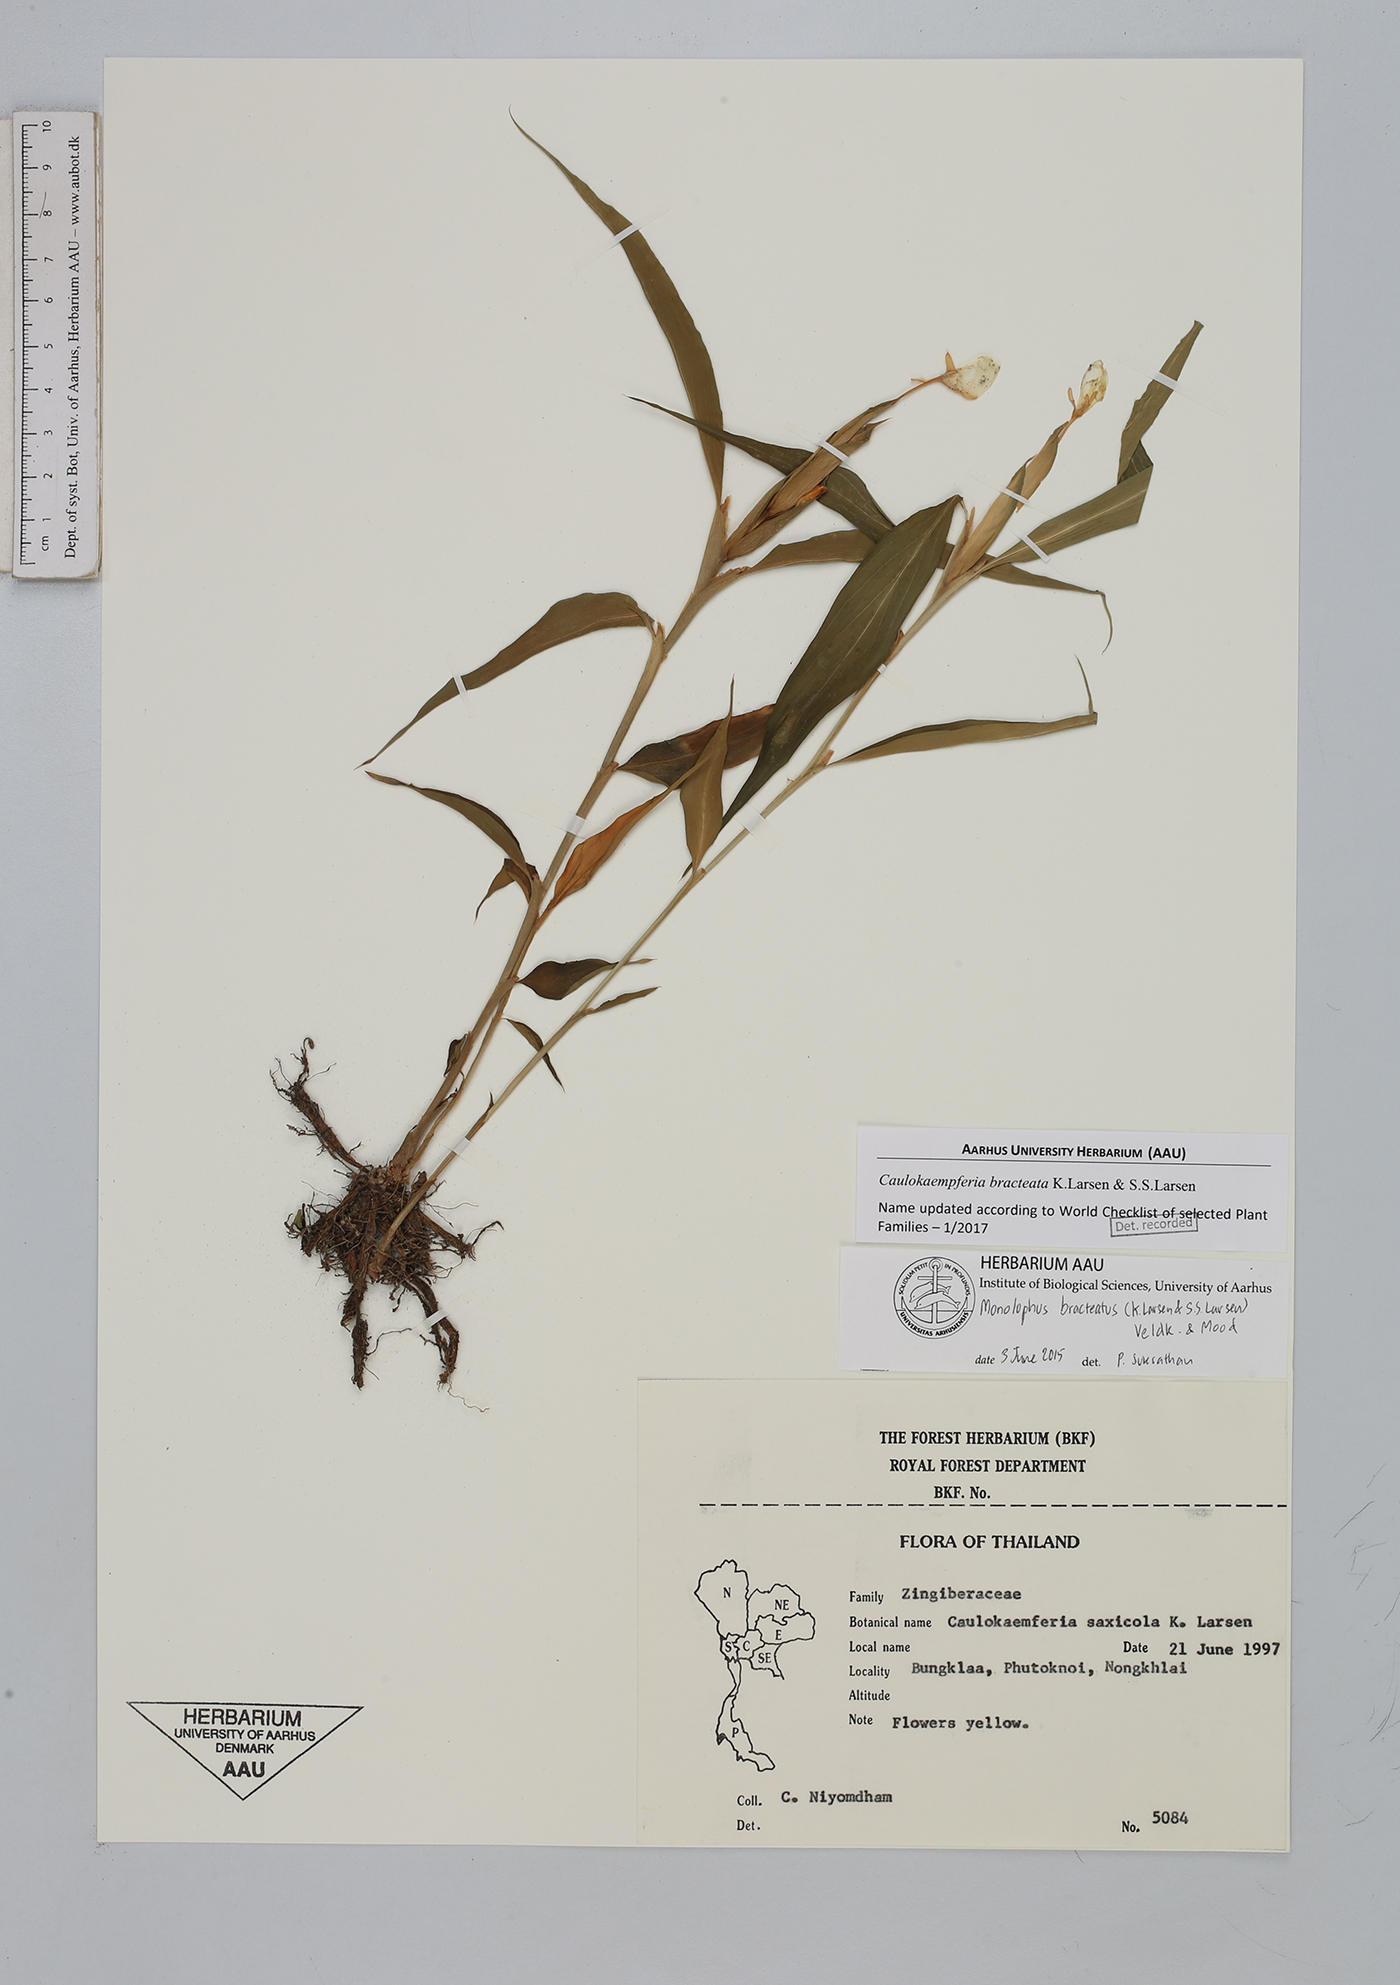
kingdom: Plantae
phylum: Tracheophyta
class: Liliopsida
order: Zingiberales
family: Zingiberaceae
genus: Caulokaempferia
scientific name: Caulokaempferia bracteata
